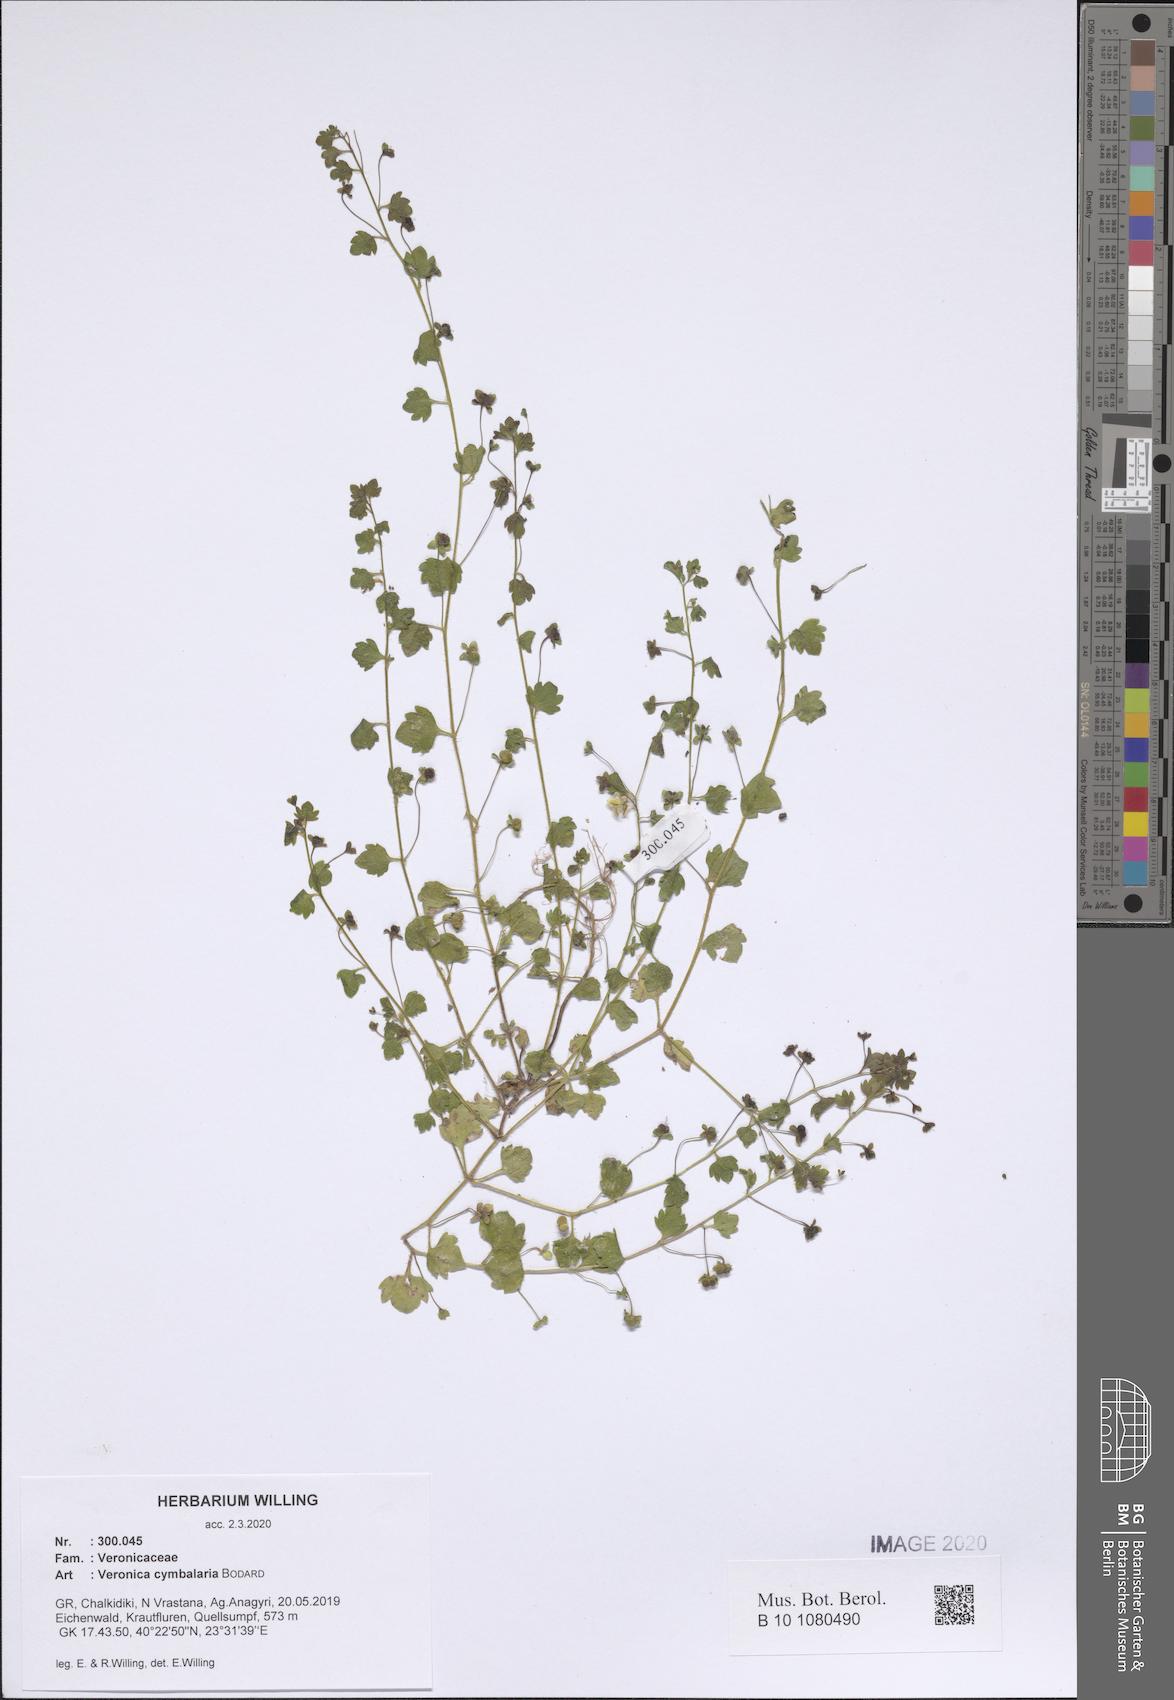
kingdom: Plantae
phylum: Tracheophyta
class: Magnoliopsida
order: Lamiales
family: Plantaginaceae
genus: Veronica
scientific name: Veronica cymbalaria
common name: Pale speedwell
